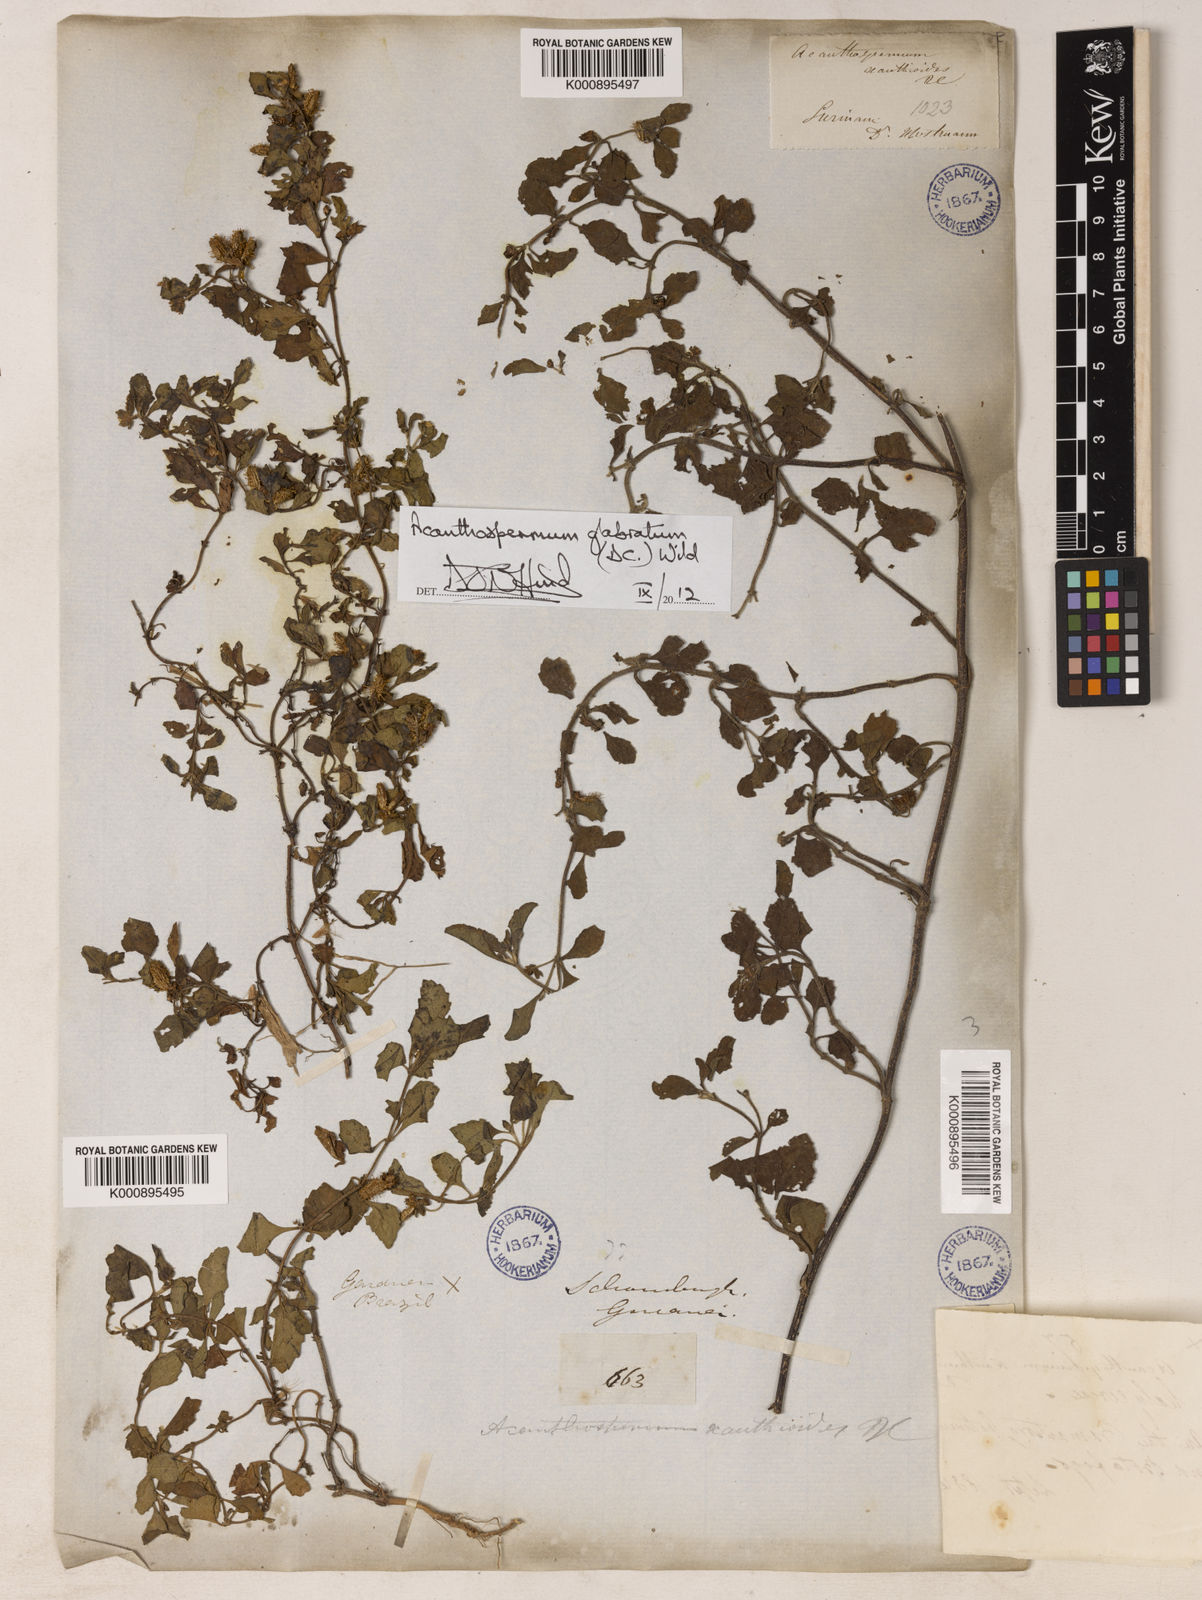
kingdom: Plantae
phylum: Tracheophyta
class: Magnoliopsida
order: Asterales
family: Asteraceae
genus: Acanthospermum
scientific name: Acanthospermum glabratum
